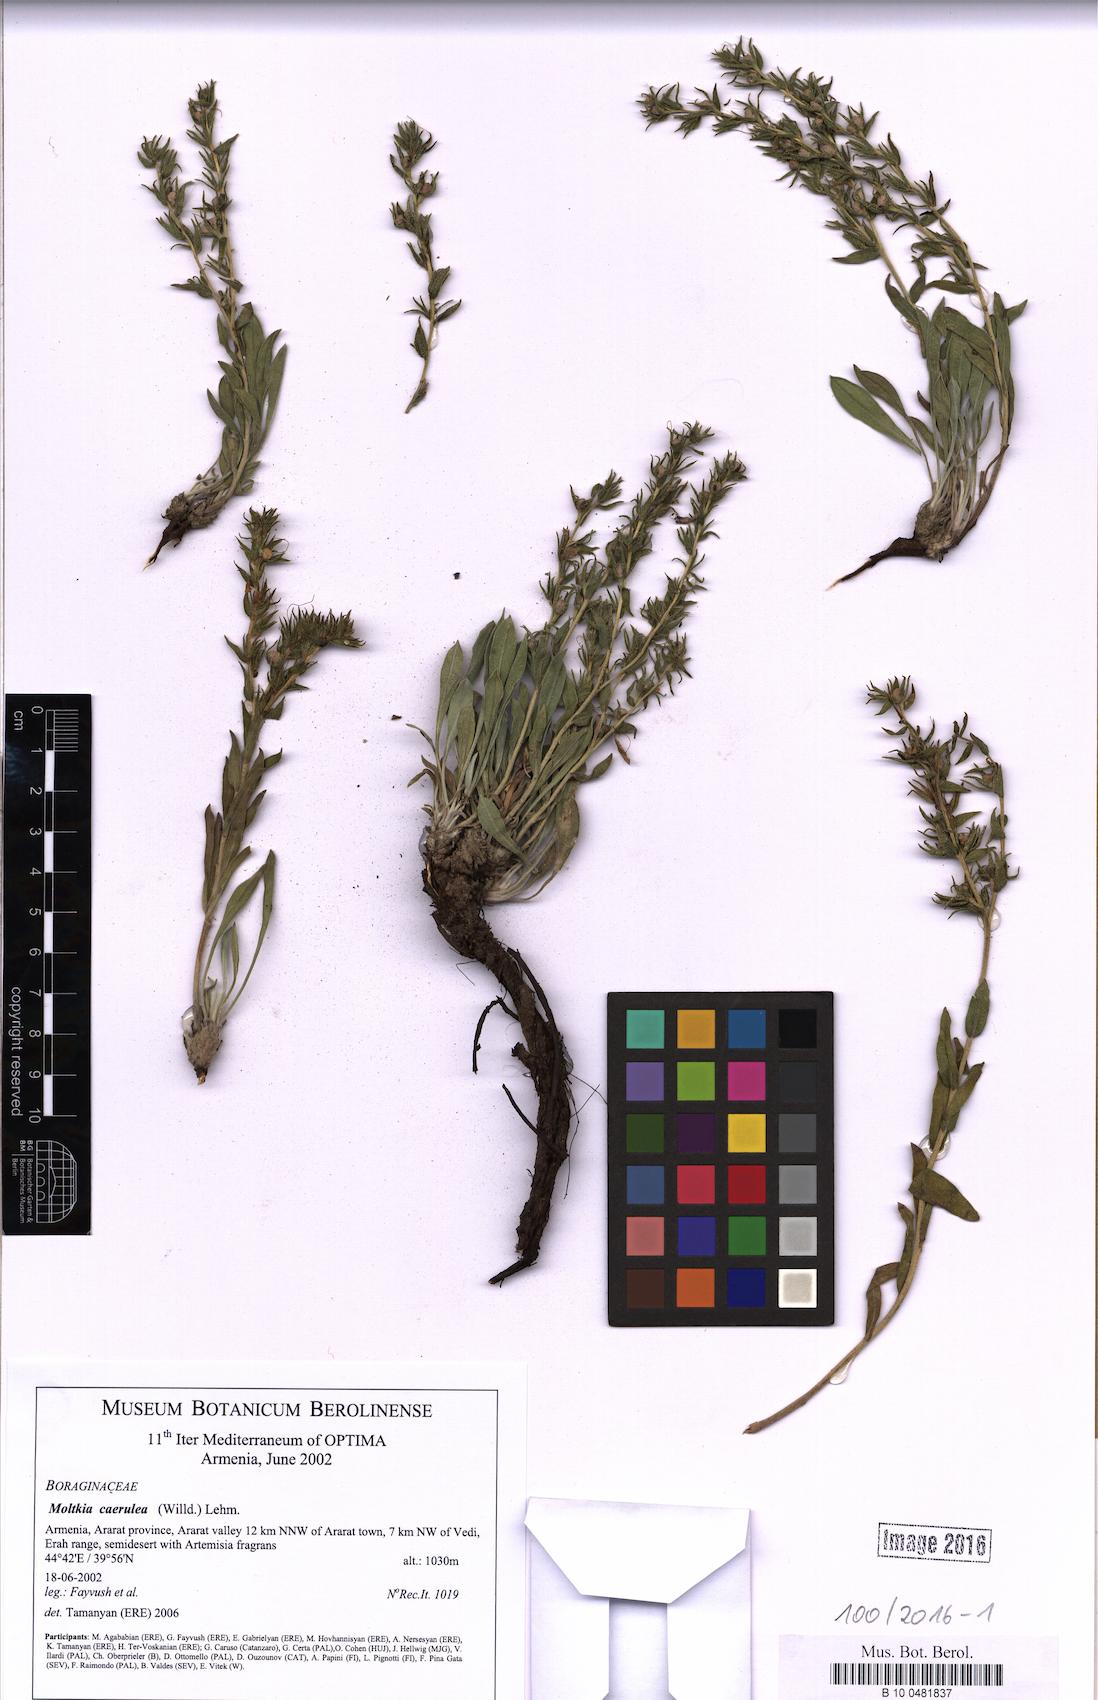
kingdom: Plantae
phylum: Tracheophyta
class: Magnoliopsida
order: Boraginales
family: Boraginaceae
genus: Moltkia
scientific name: Moltkia coerulea
